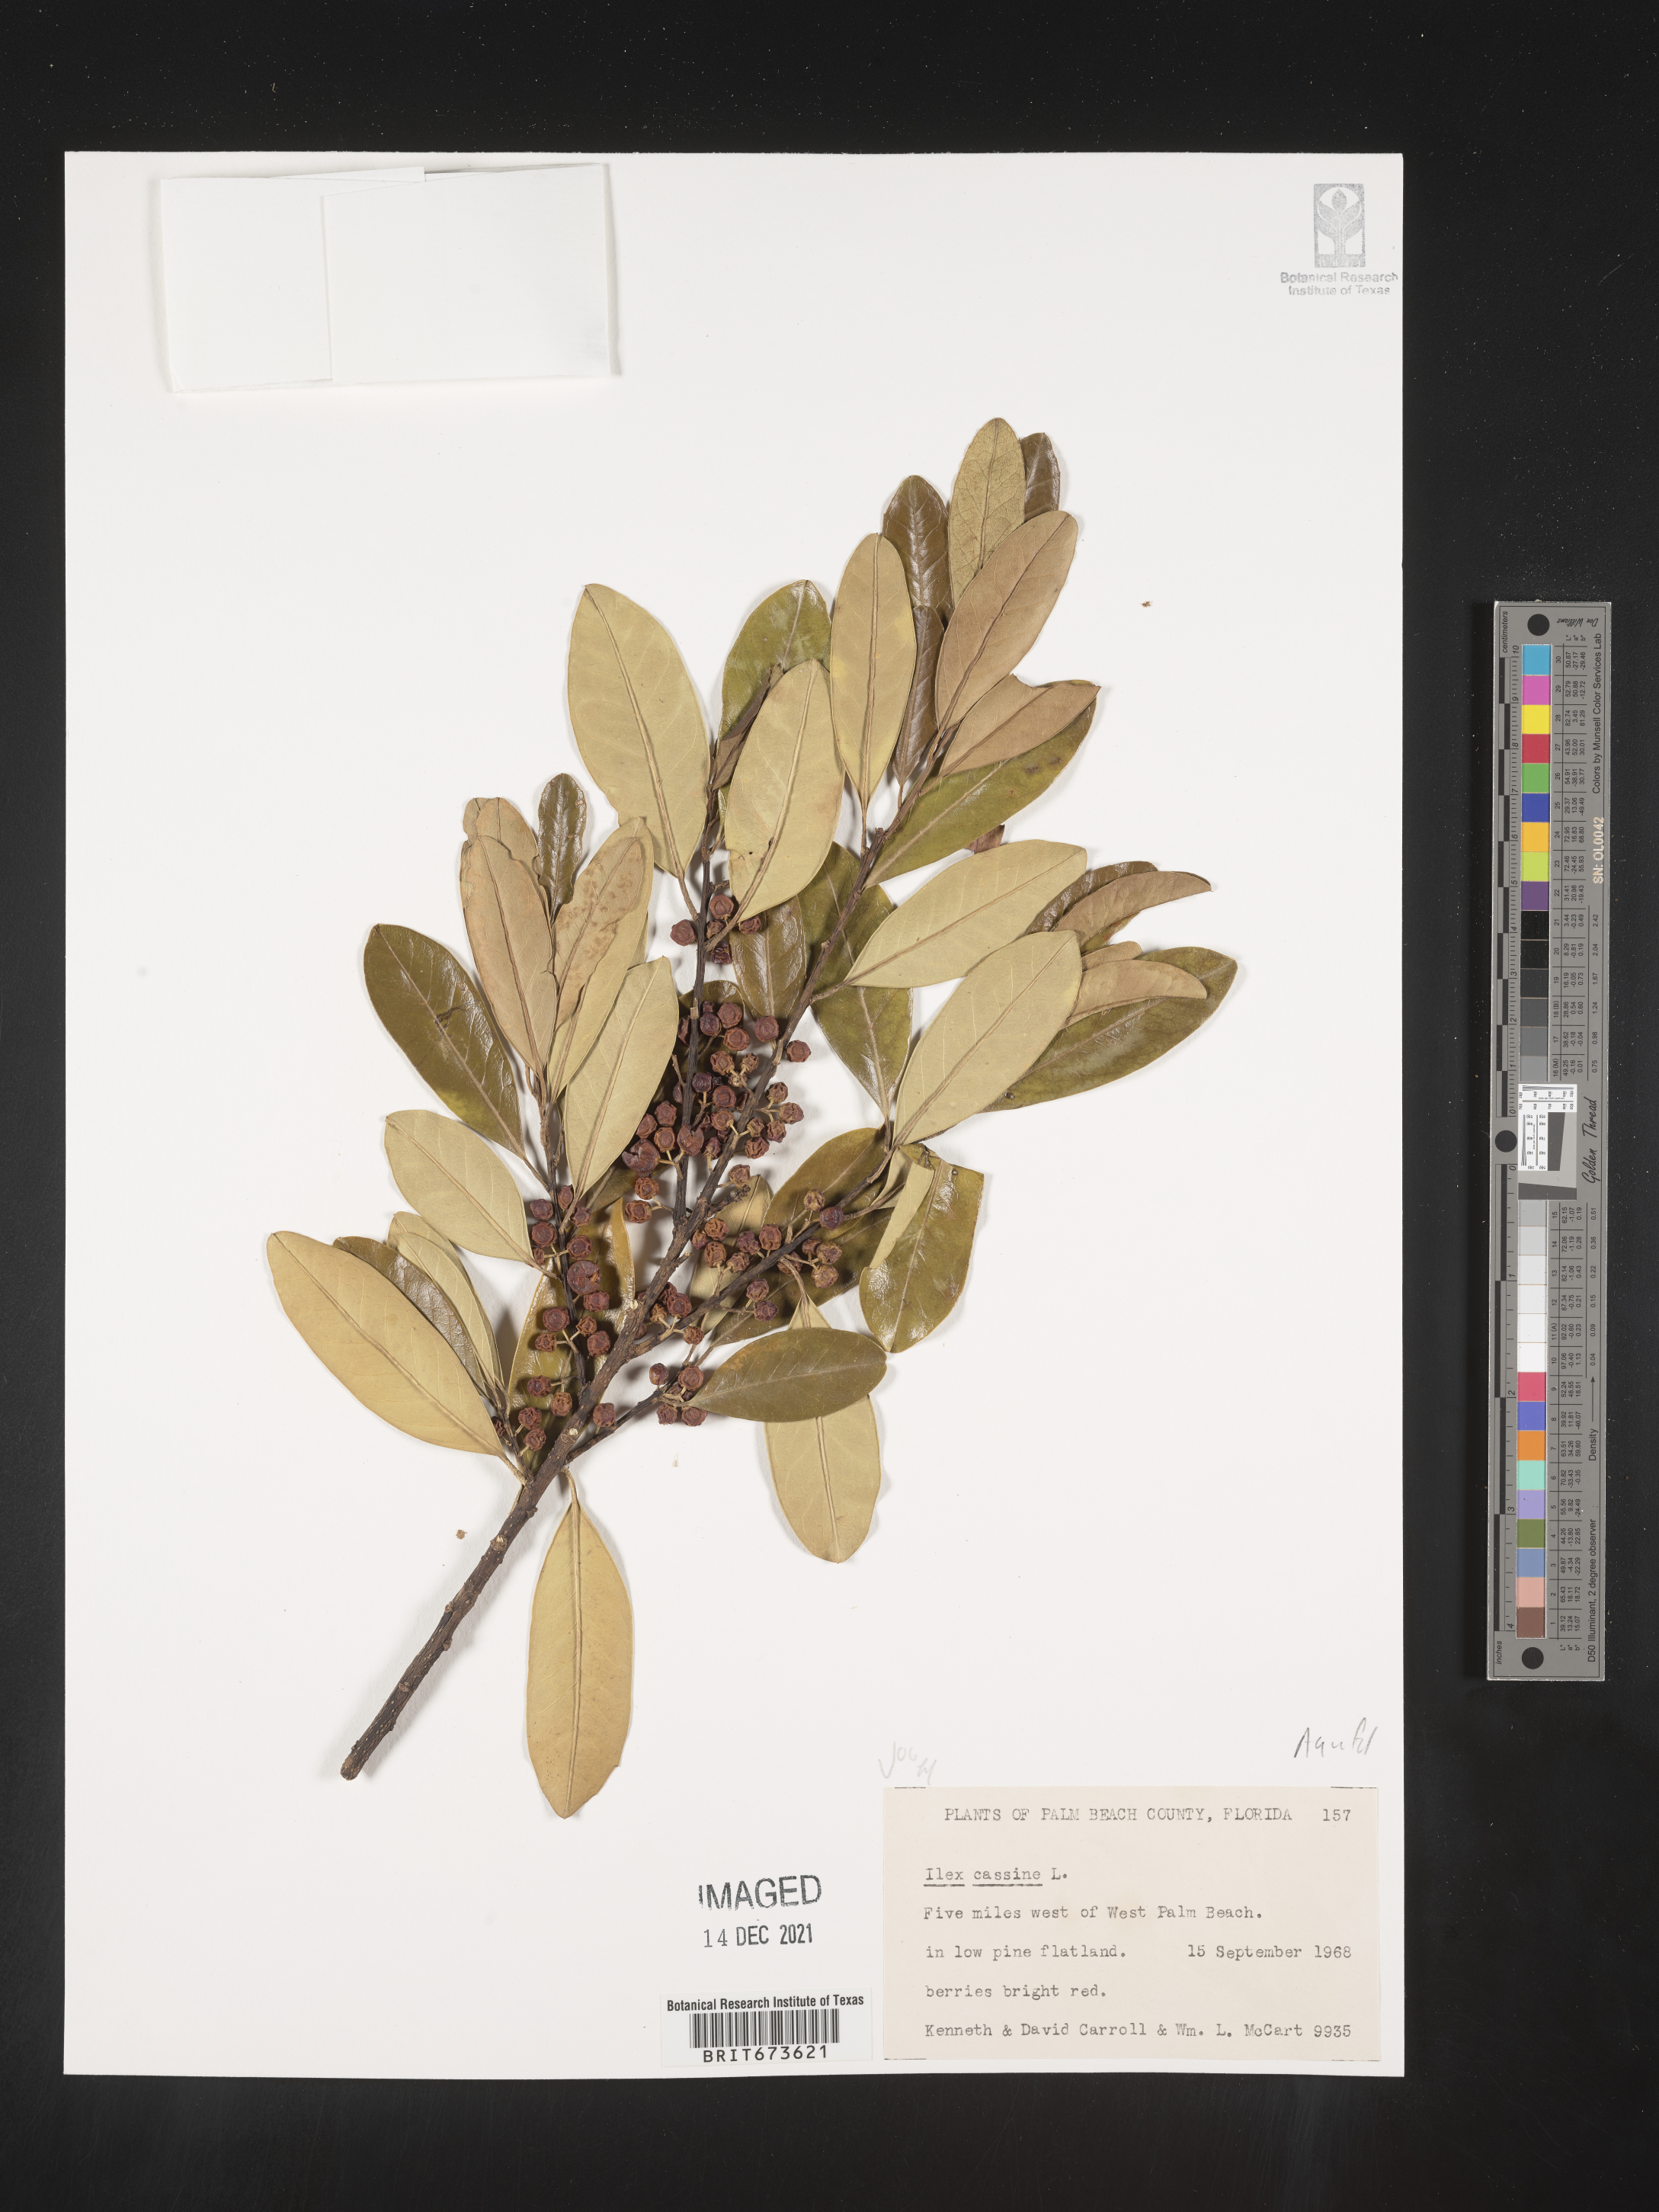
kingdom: Plantae
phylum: Tracheophyta
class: Magnoliopsida
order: Aquifoliales
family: Aquifoliaceae
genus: Ilex
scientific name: Ilex cassine
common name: Dahoon
